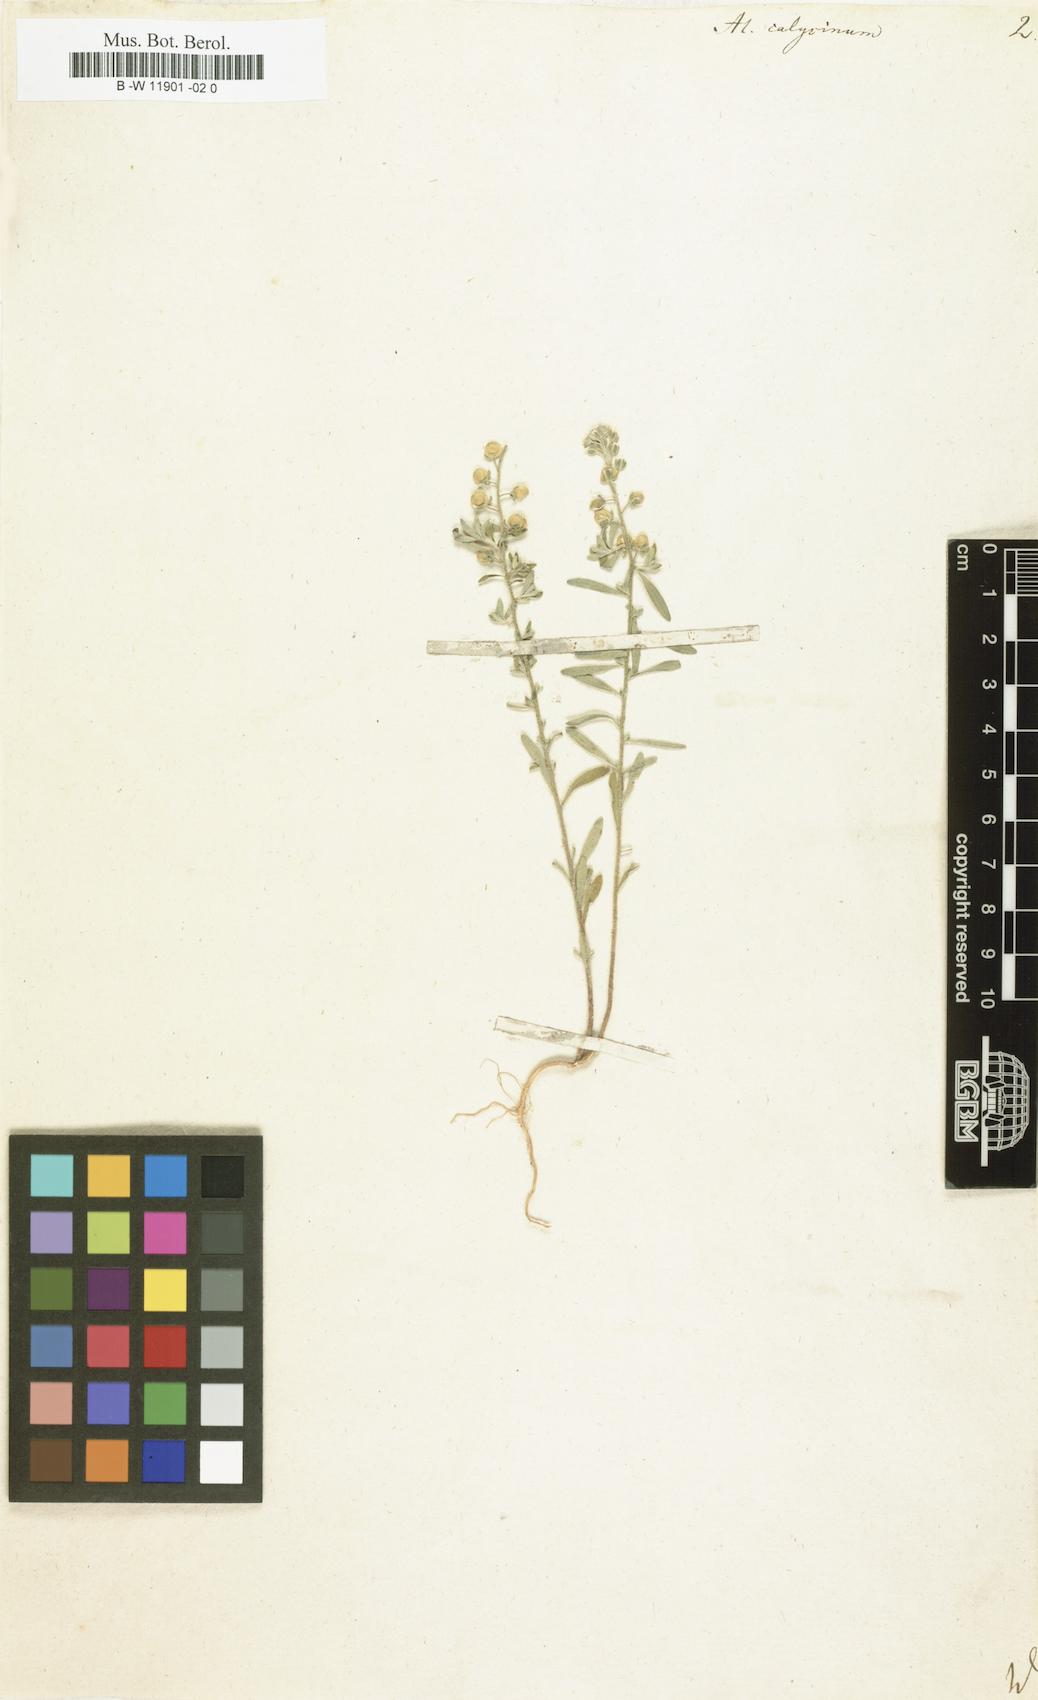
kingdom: Plantae
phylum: Tracheophyta
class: Magnoliopsida
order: Brassicales
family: Brassicaceae
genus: Alyssum
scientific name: Alyssum alyssoides
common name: Small alison
